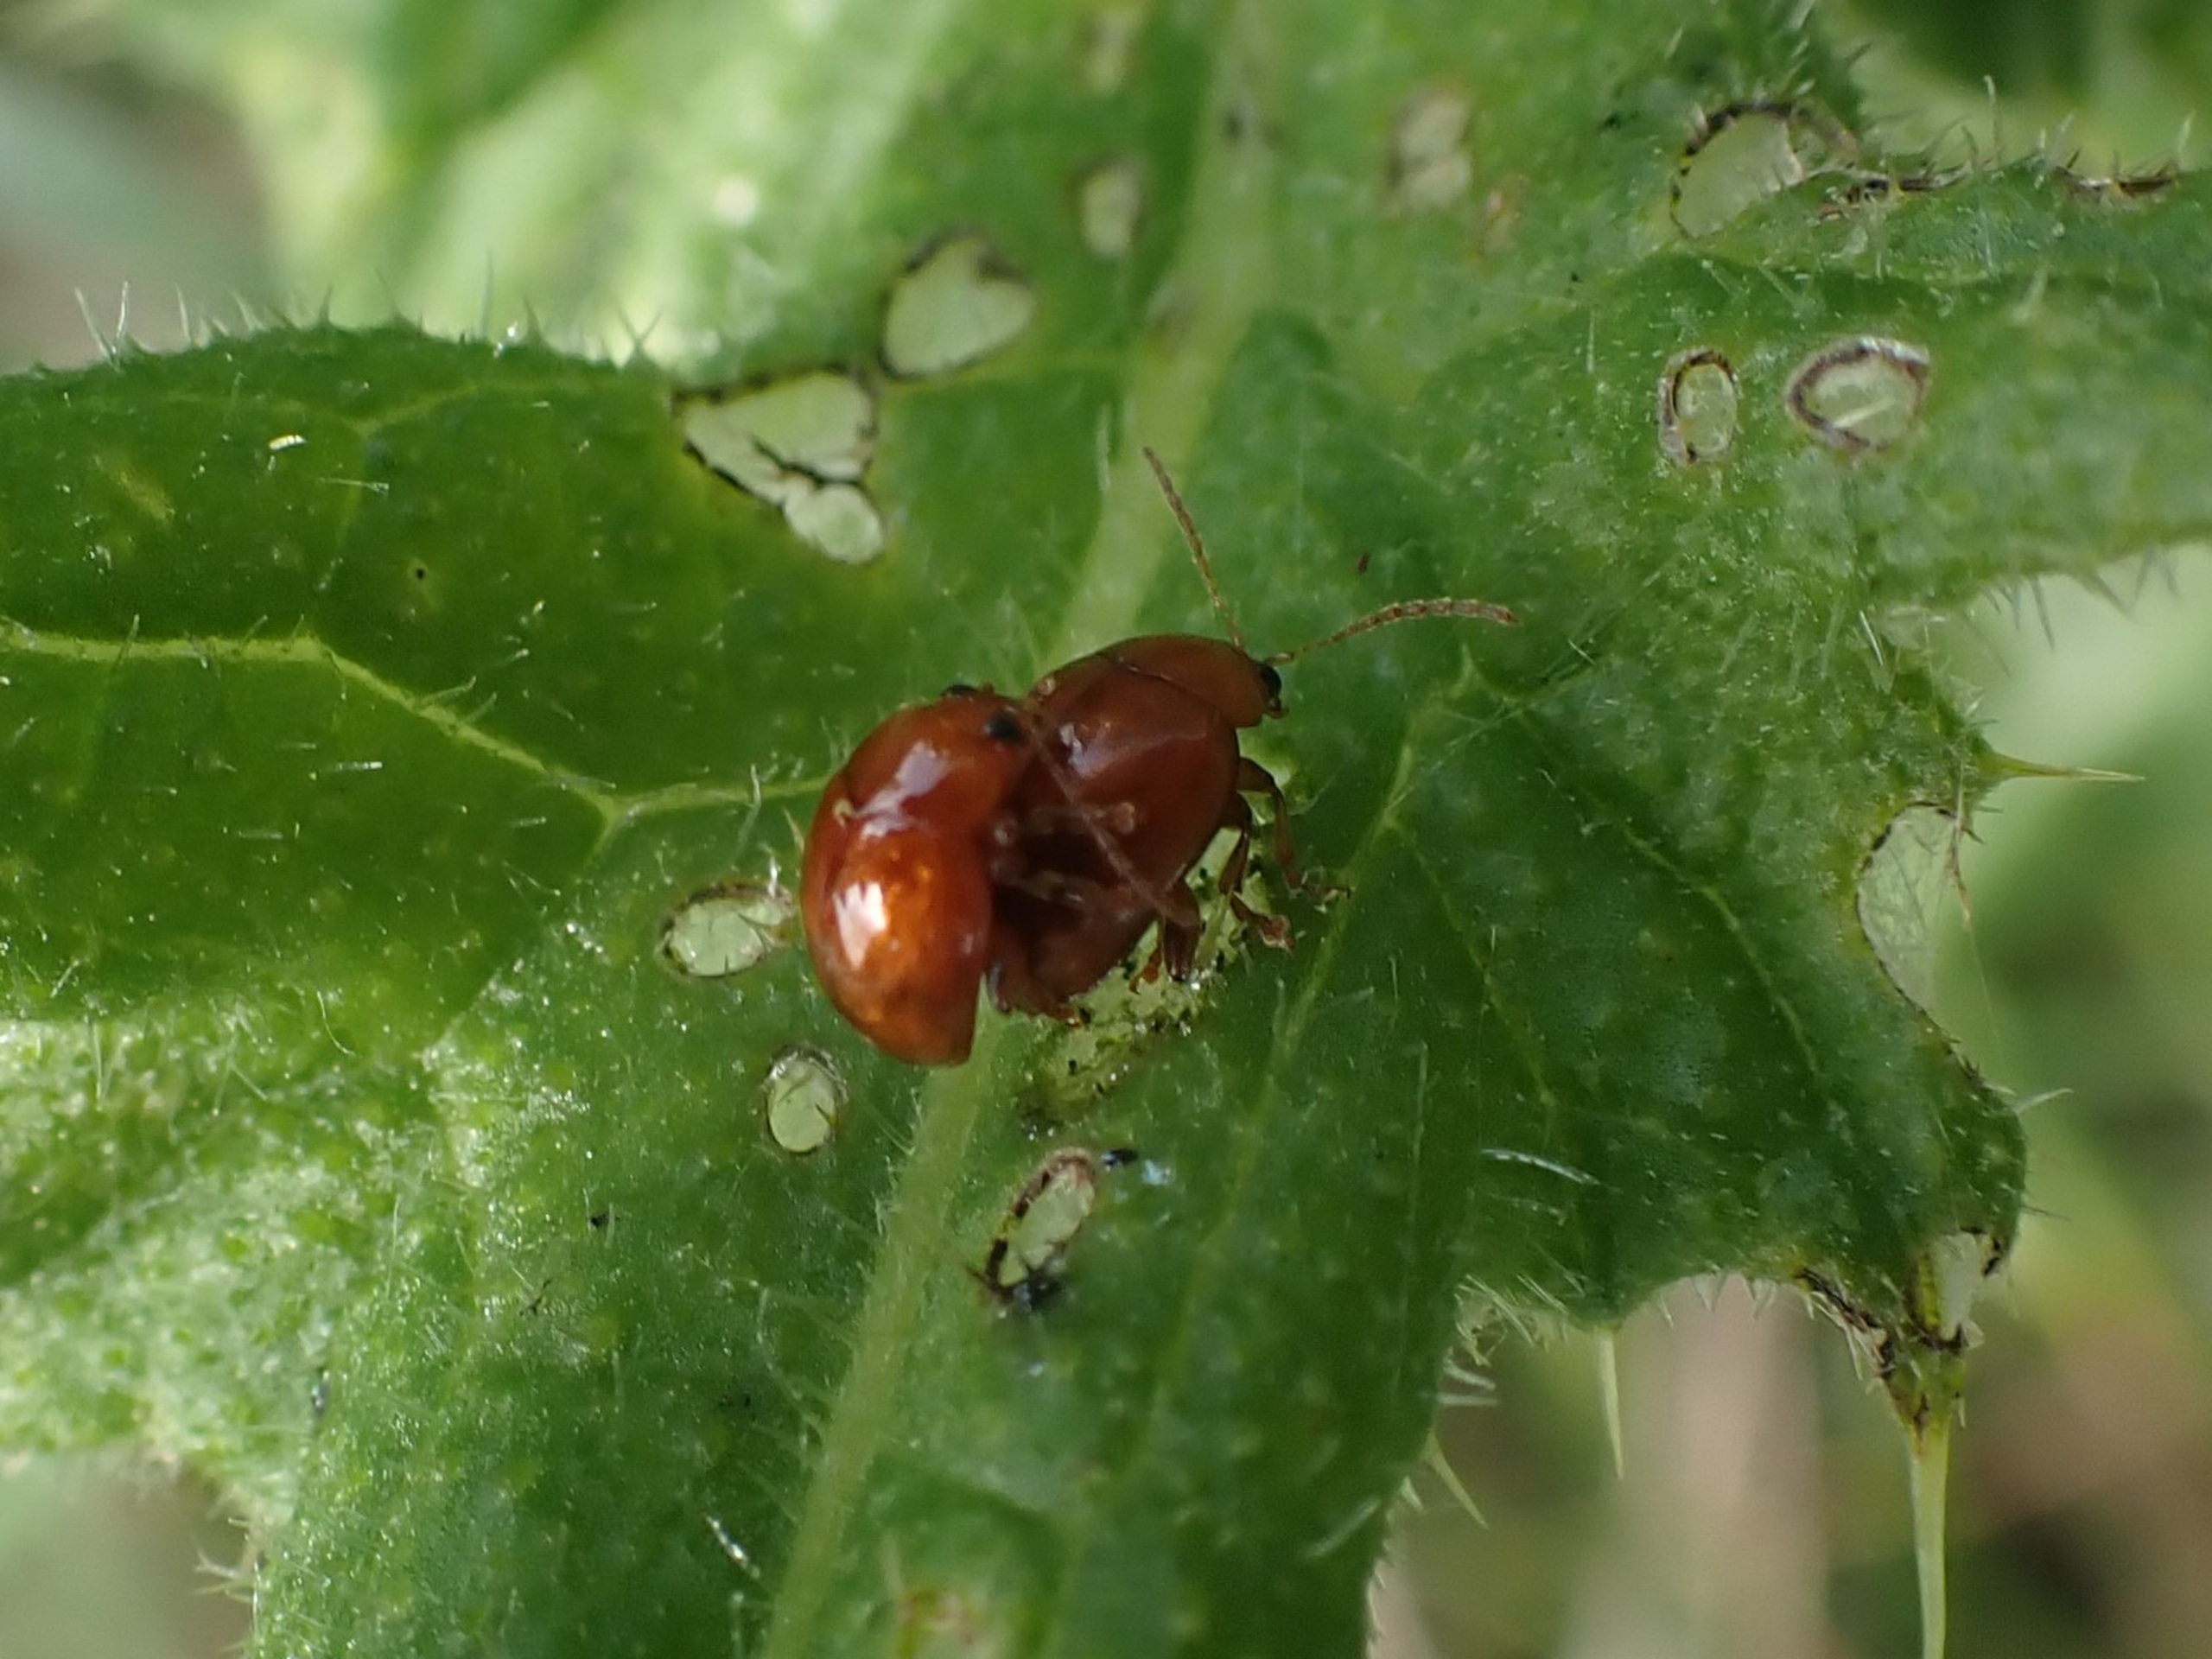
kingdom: Animalia
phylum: Arthropoda
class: Insecta
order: Coleoptera
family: Chrysomelidae
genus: Pistosia
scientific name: Pistosia testacea
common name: Tidselkuglebille
